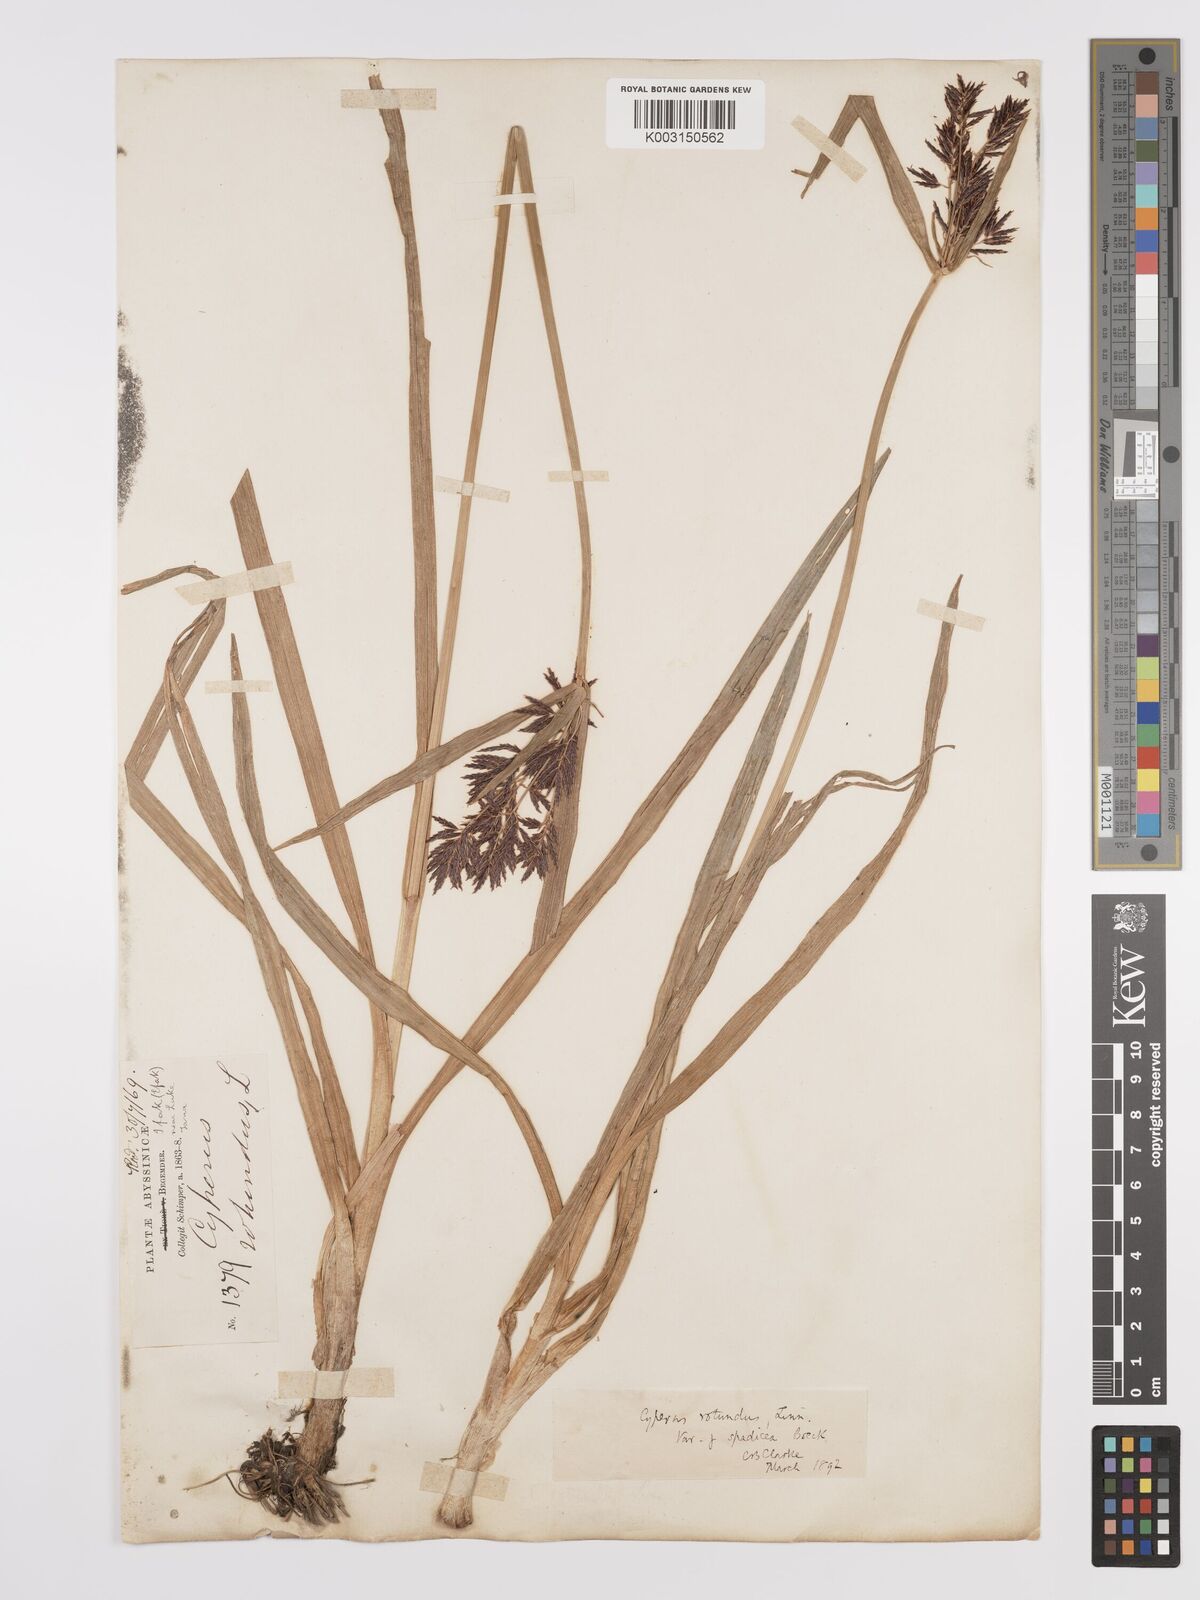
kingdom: Plantae
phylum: Tracheophyta
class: Liliopsida
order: Poales
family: Cyperaceae
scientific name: Cyperaceae
